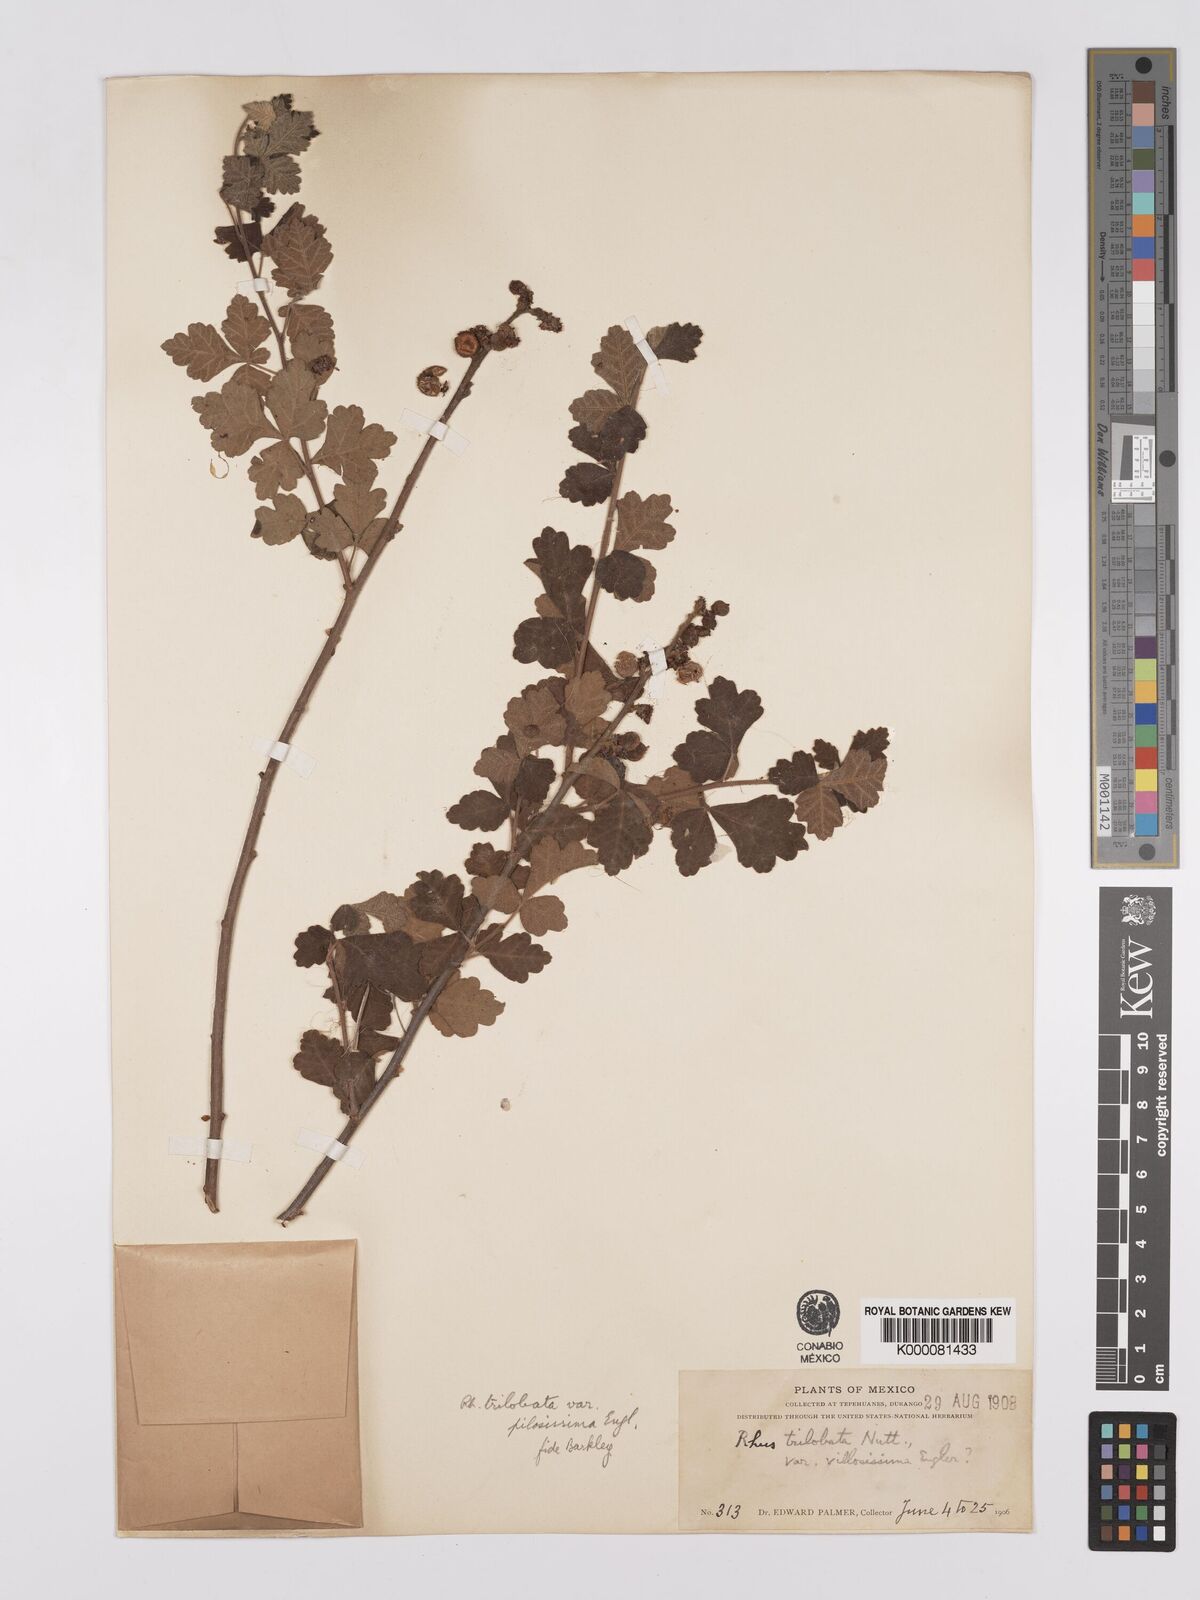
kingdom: Plantae
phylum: Tracheophyta
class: Magnoliopsida
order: Sapindales
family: Anacardiaceae
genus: Rhus
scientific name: Rhus trilobata
